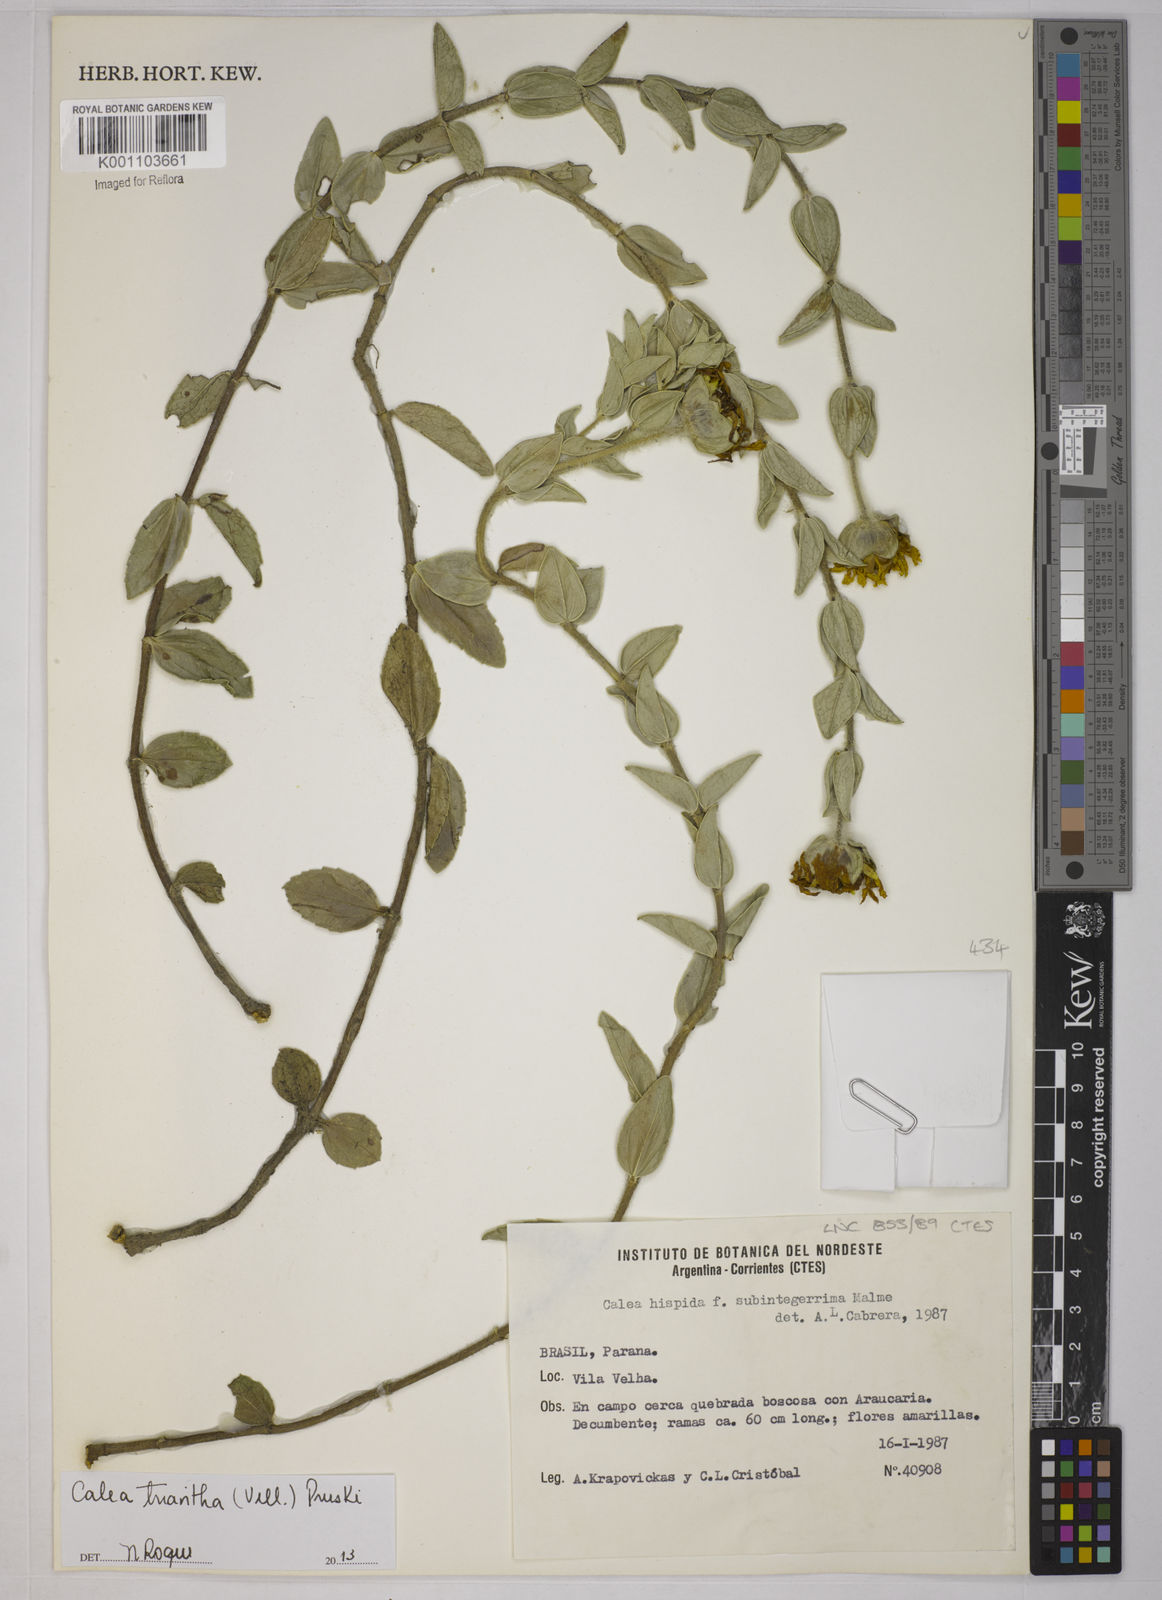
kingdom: Plantae
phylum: Tracheophyta
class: Magnoliopsida
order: Asterales
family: Asteraceae
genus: Calea
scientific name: Calea triantha
